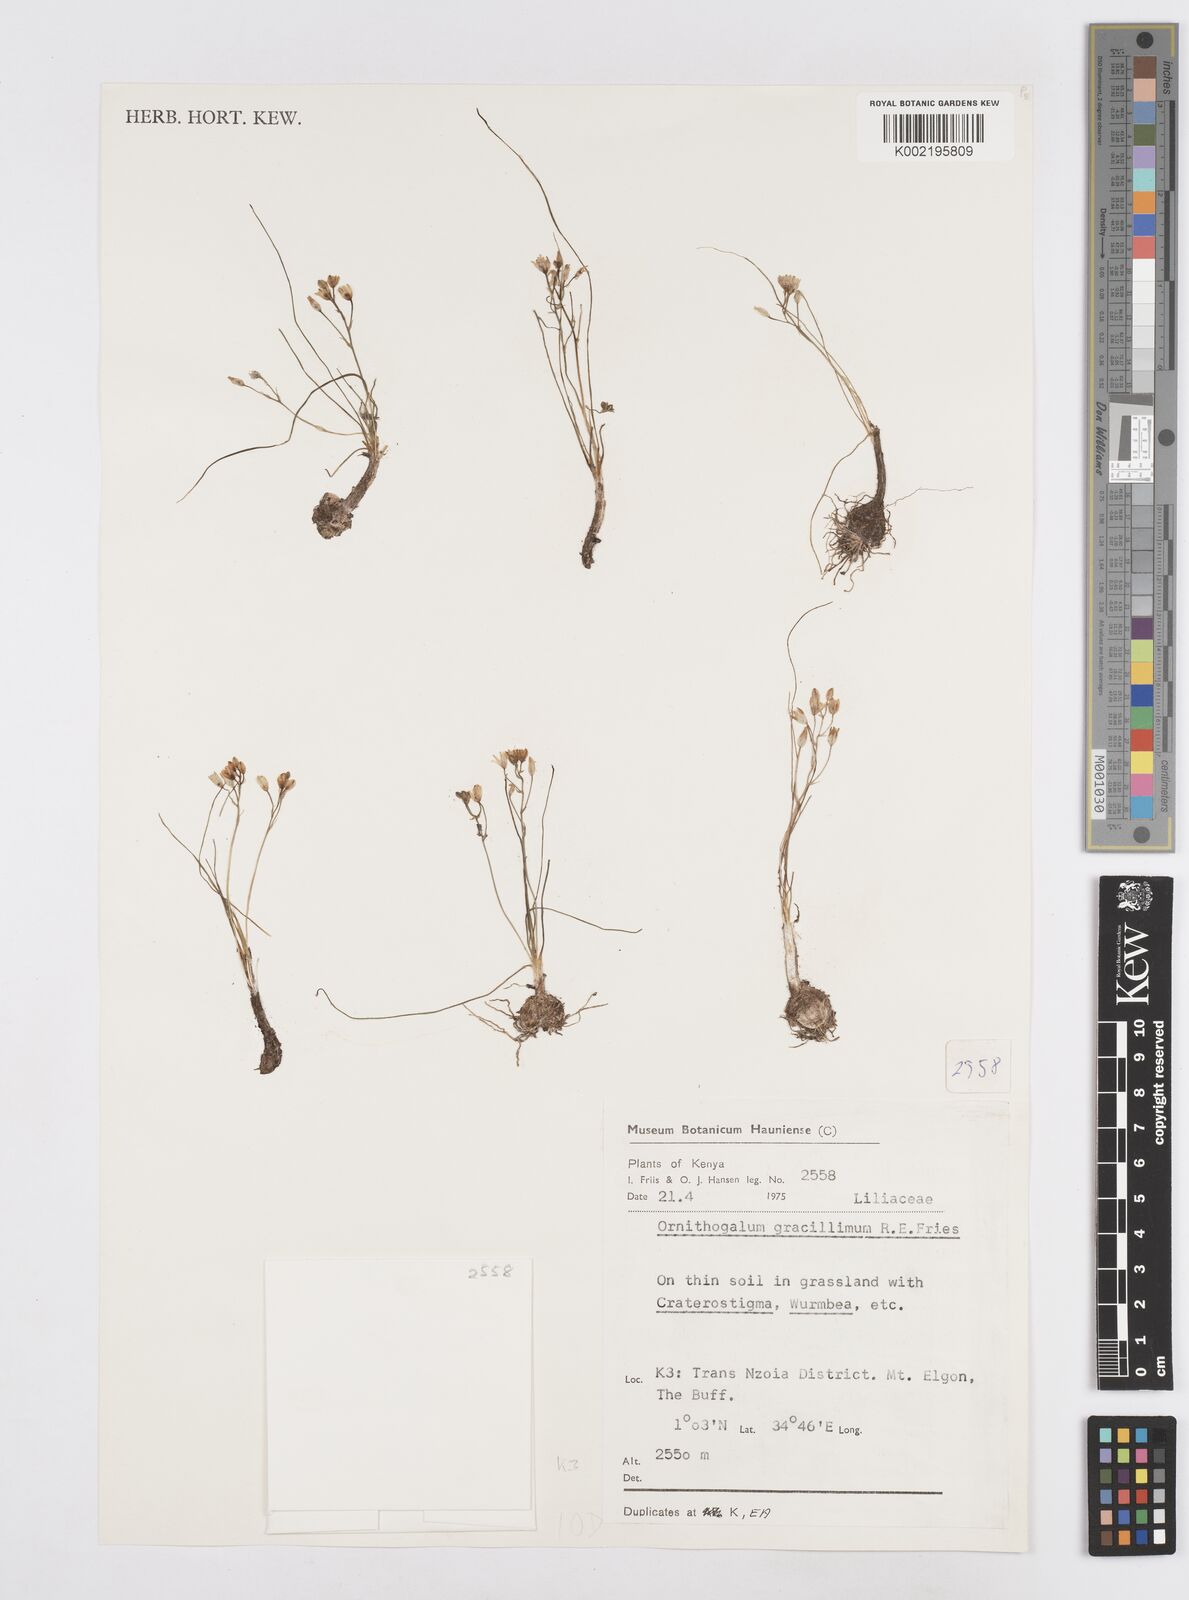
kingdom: Plantae
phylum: Tracheophyta
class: Liliopsida
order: Asparagales
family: Asparagaceae
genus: Ornithogalum
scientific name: Ornithogalum gracillimum
